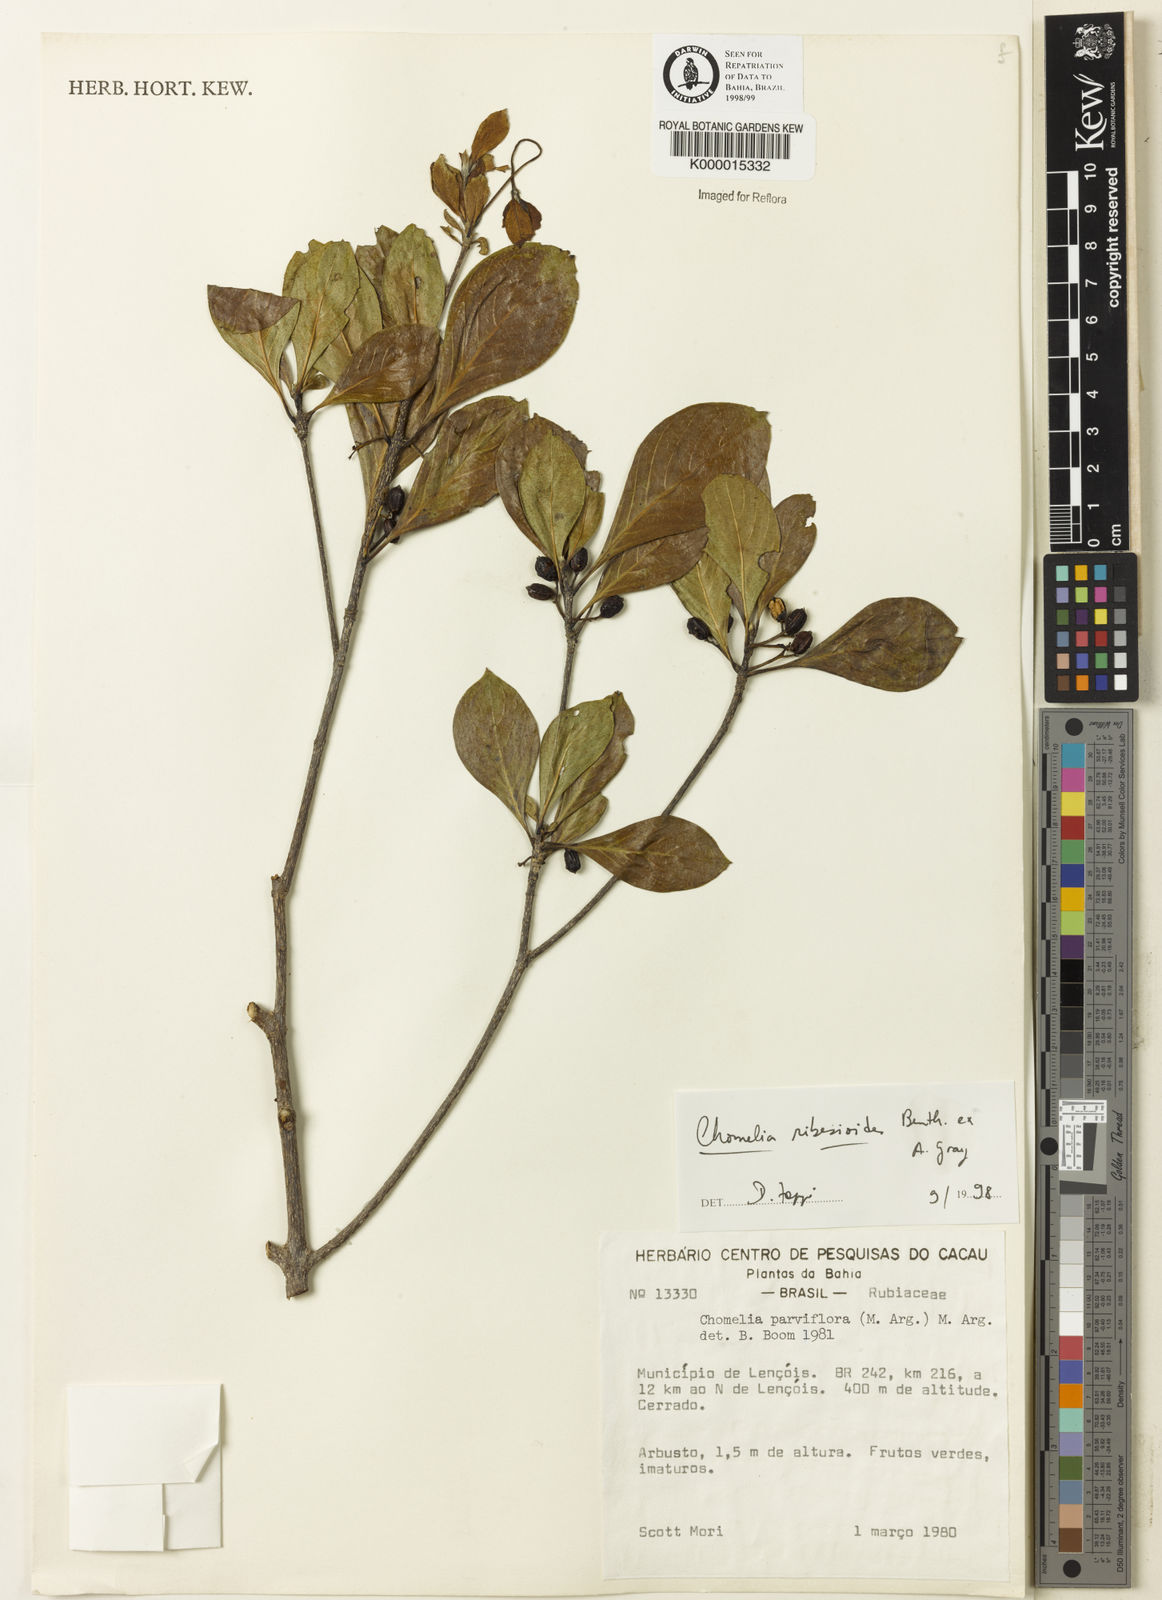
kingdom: Plantae
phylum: Tracheophyta
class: Magnoliopsida
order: Gentianales
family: Rubiaceae
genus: Chomelia
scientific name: Chomelia ribesioides
